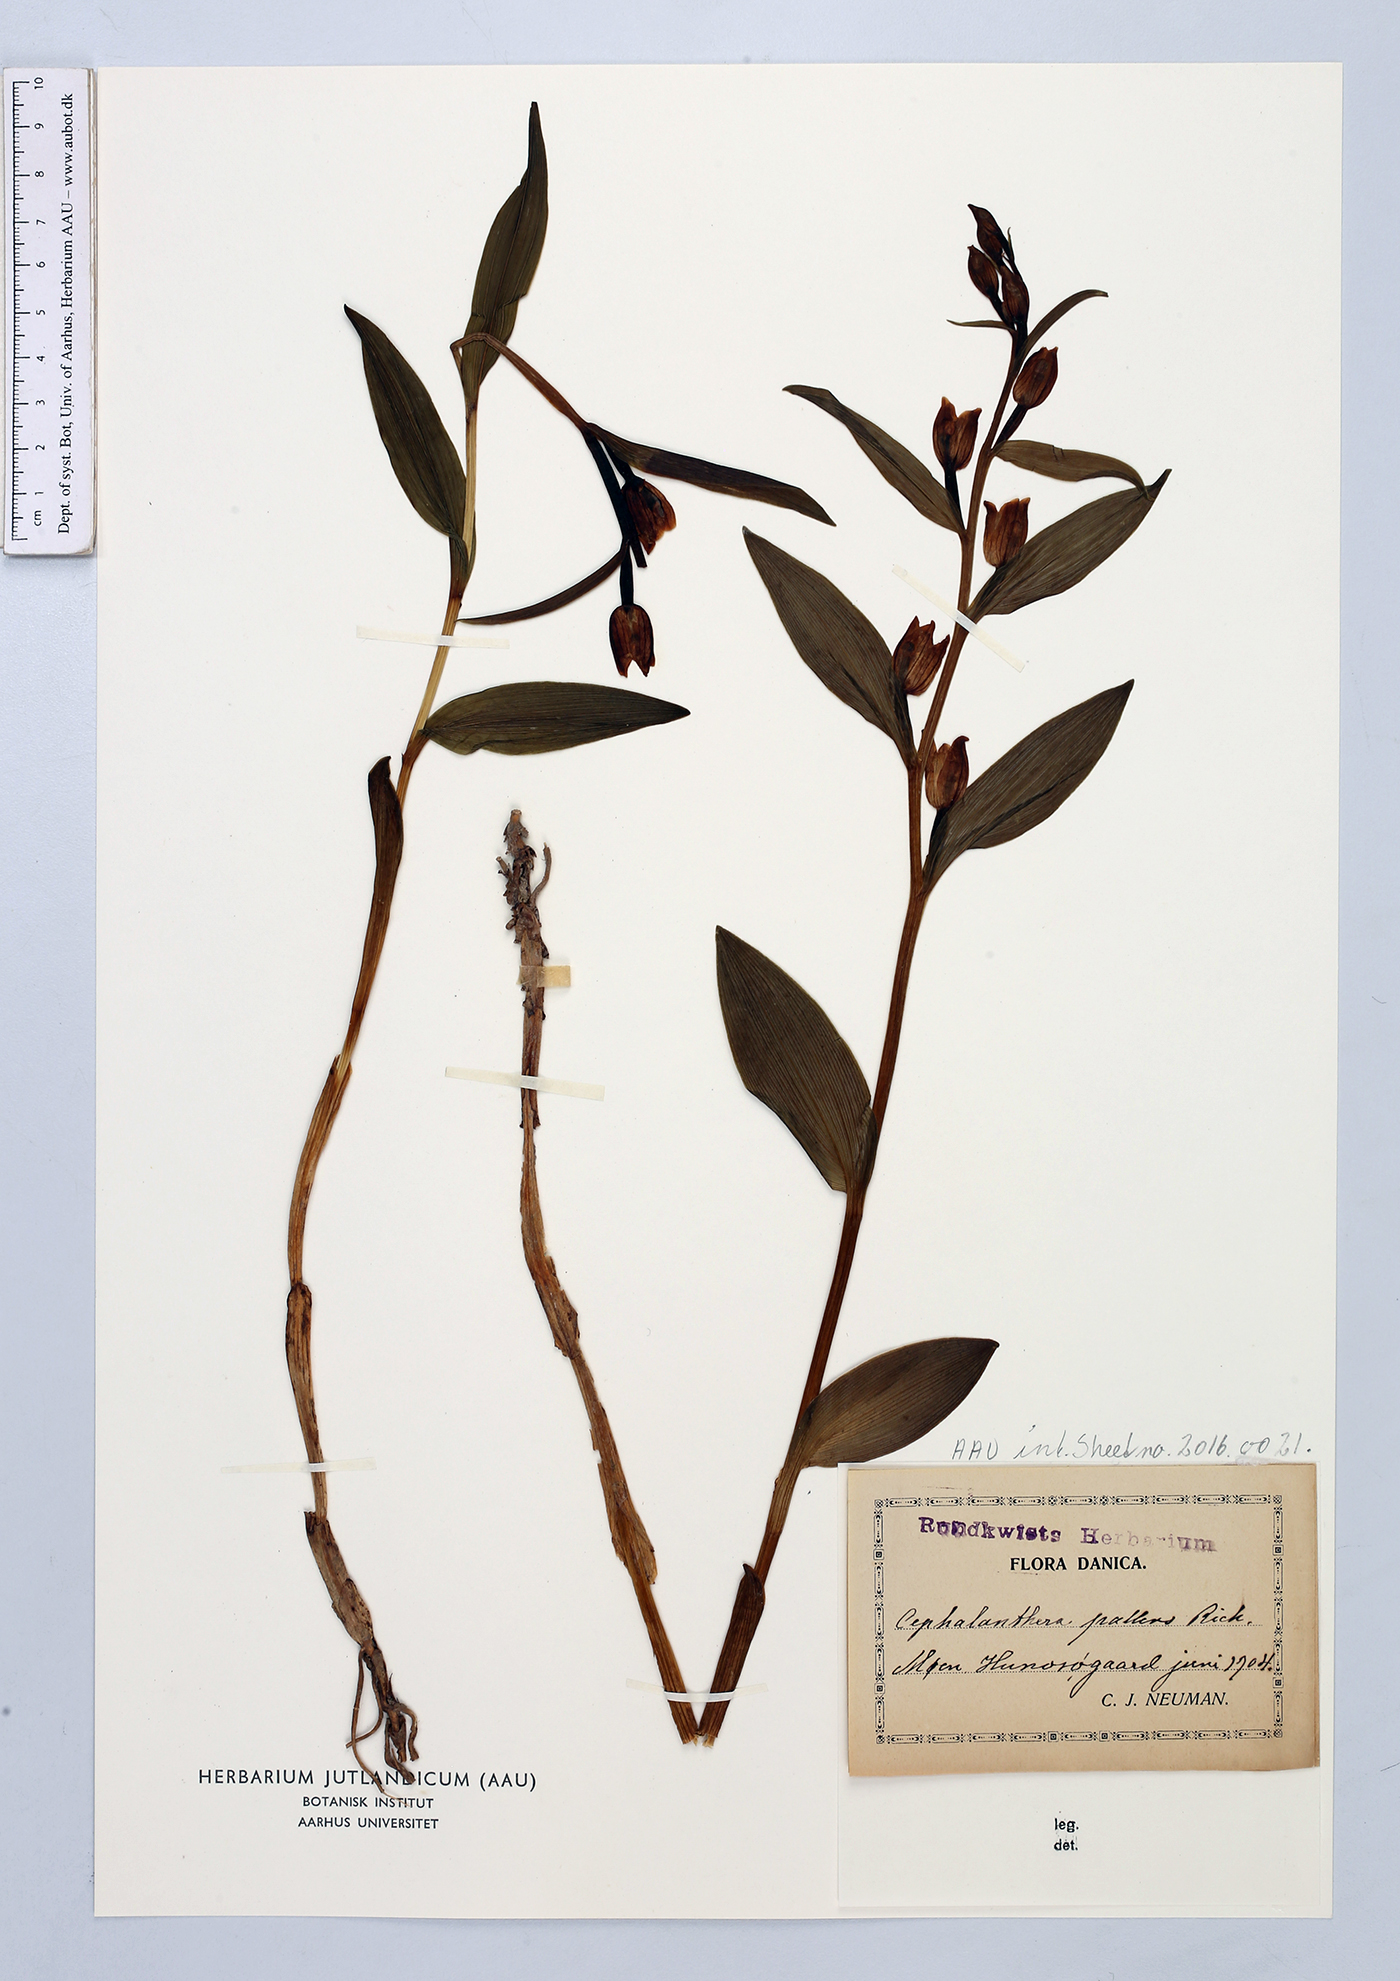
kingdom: Plantae
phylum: Tracheophyta
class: Liliopsida
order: Asparagales
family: Orchidaceae
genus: Cephalanthera
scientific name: Cephalanthera damasonium
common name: White helleborine
